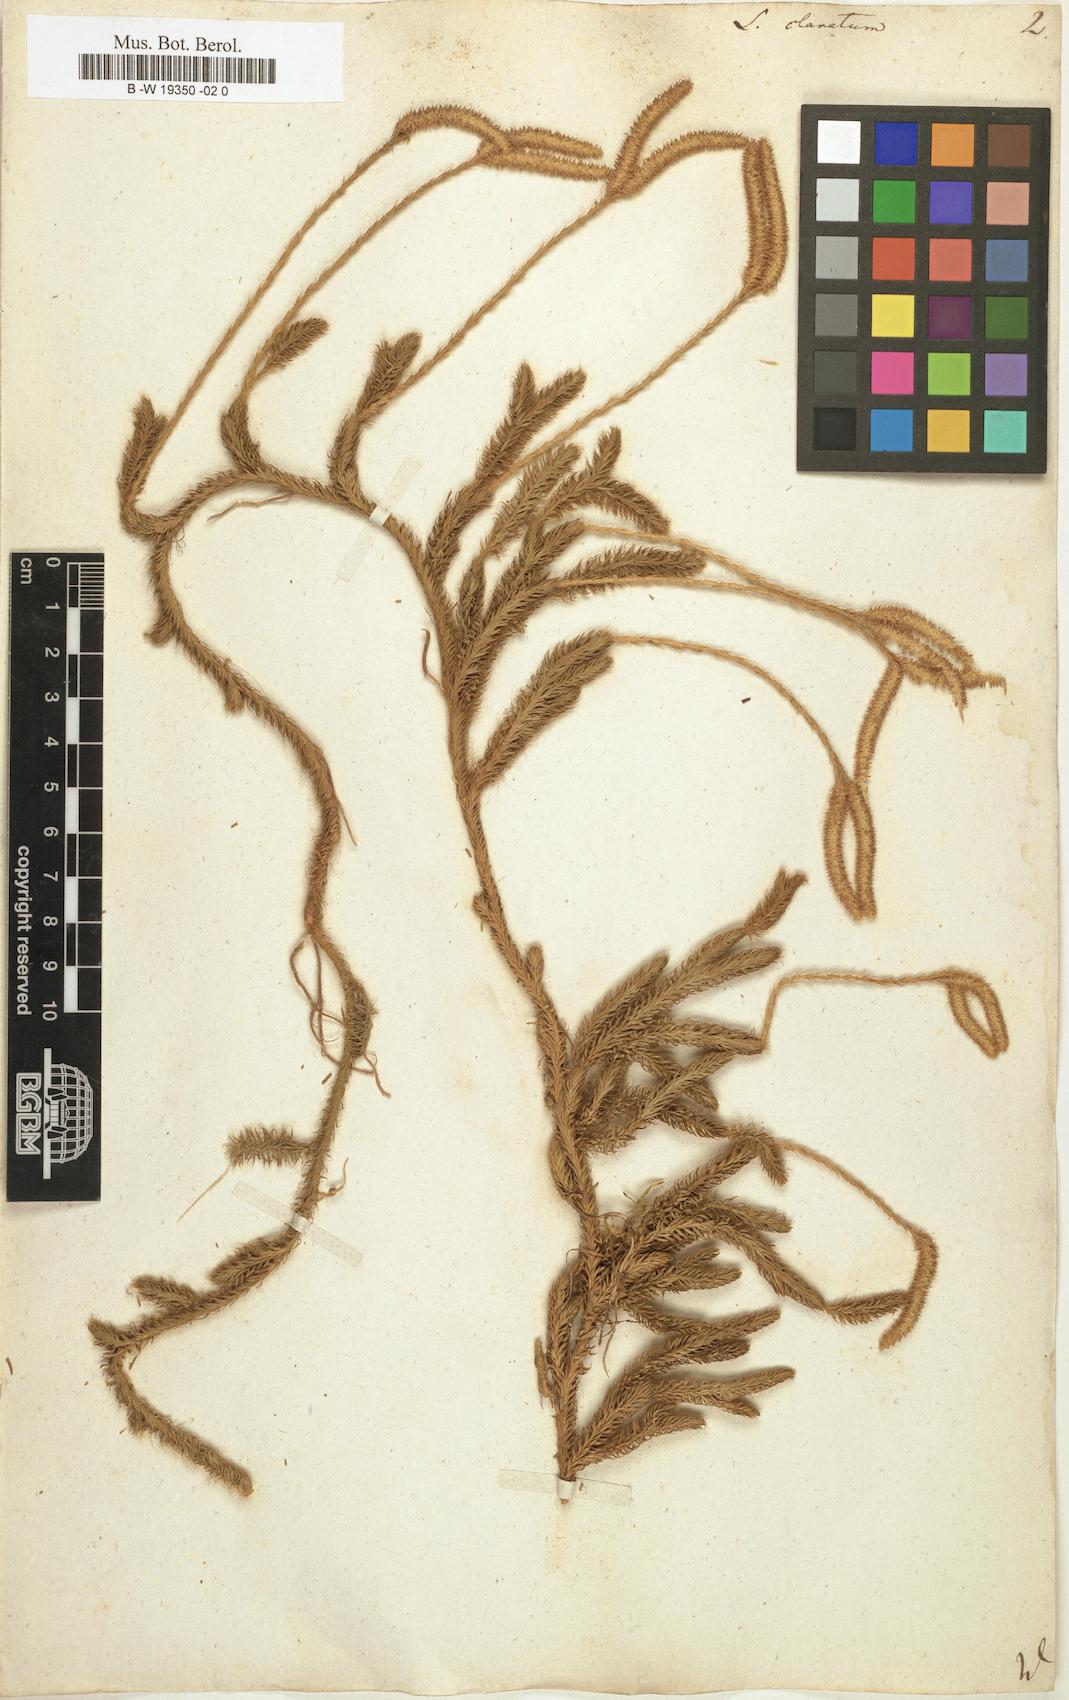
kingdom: Plantae
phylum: Tracheophyta
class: Lycopodiopsida
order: Lycopodiales
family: Lycopodiaceae
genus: Lycopodium
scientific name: Lycopodium clavatum
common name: Stag's-horn clubmoss
